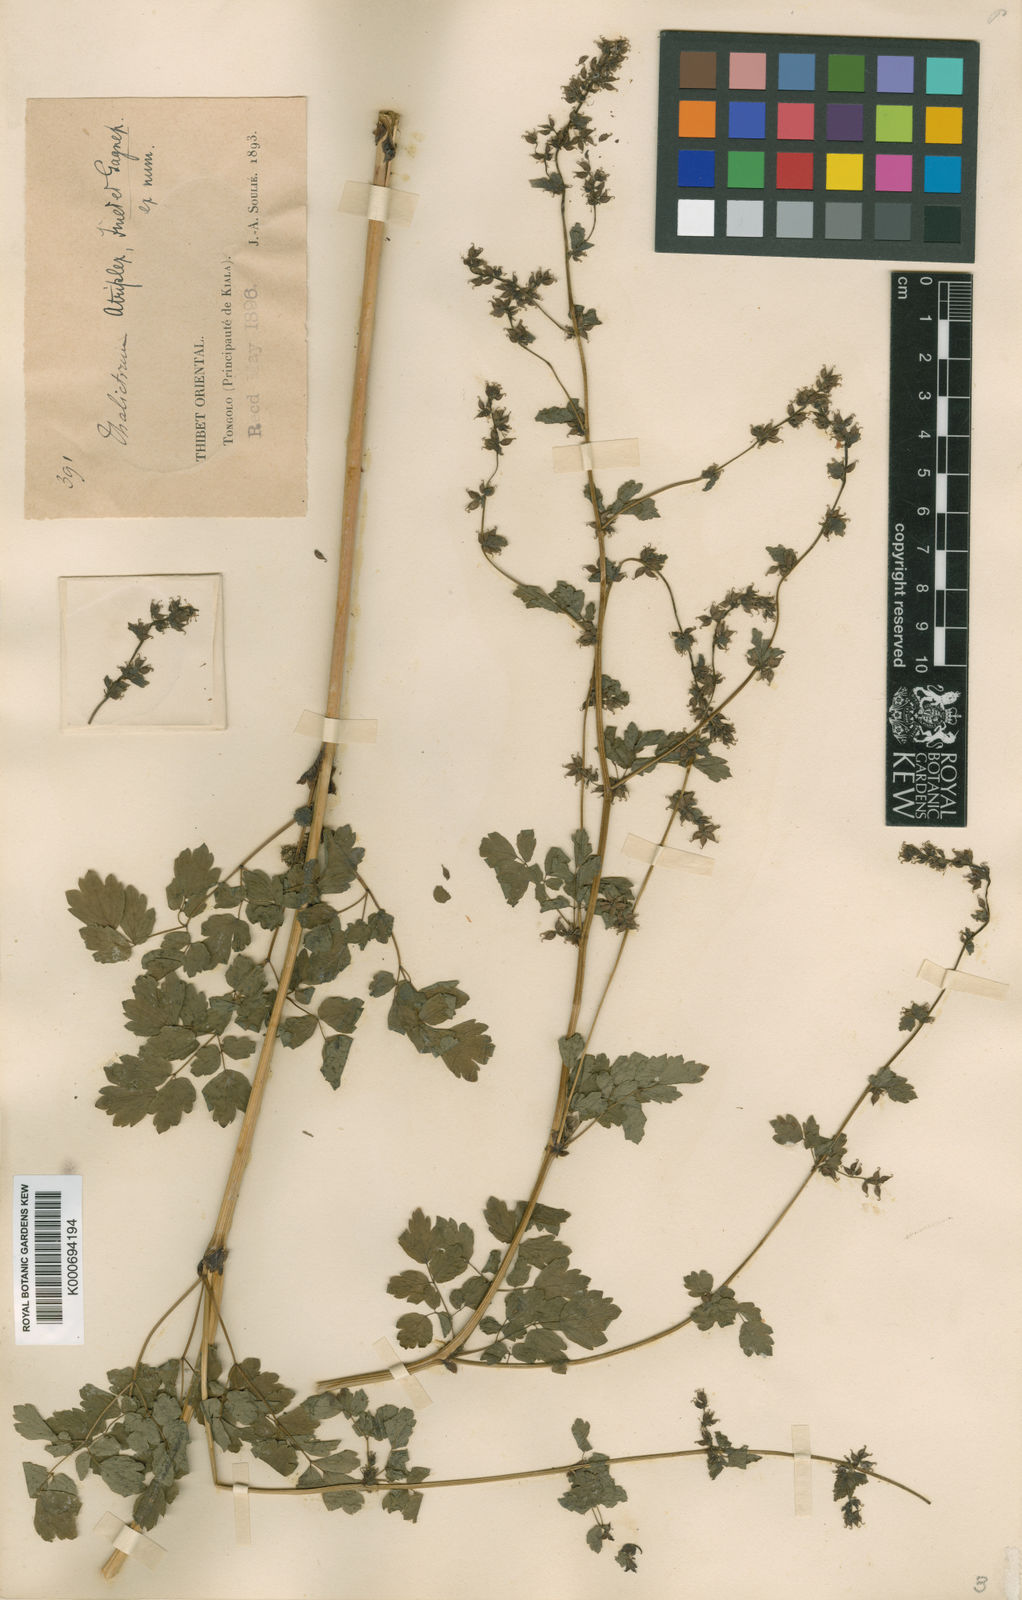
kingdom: Plantae
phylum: Tracheophyta
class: Magnoliopsida
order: Ranunculales
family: Ranunculaceae
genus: Thalictrum
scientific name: Thalictrum atriplex
